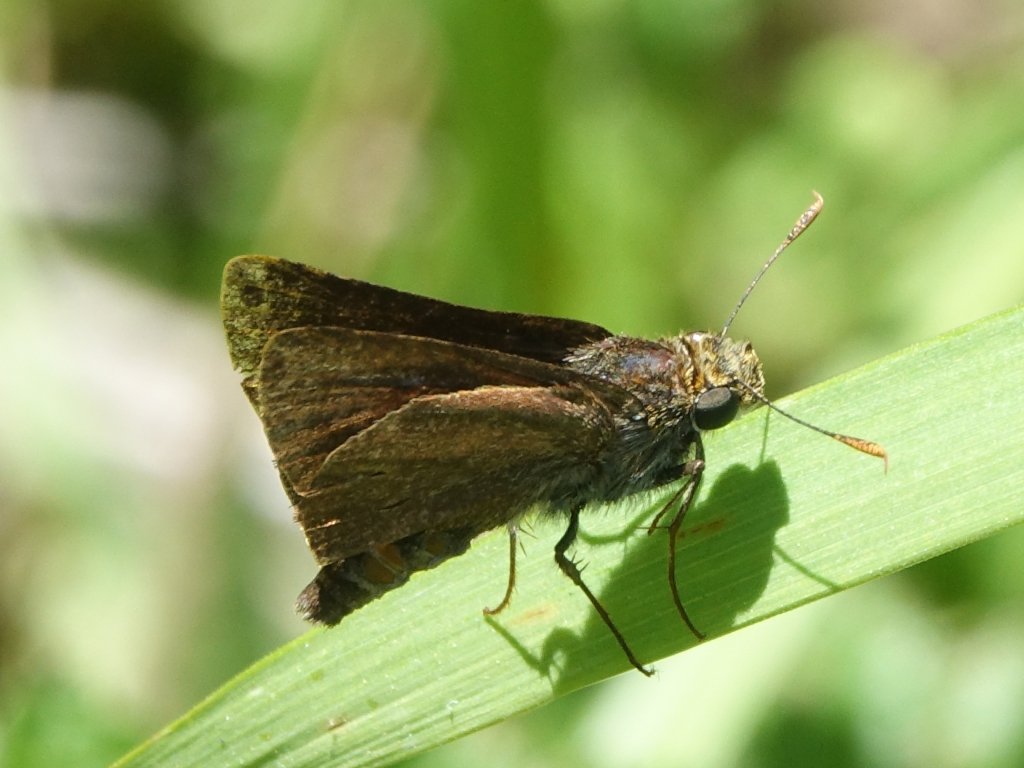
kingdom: Animalia
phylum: Arthropoda
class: Insecta
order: Lepidoptera
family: Hesperiidae
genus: Euphyes
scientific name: Euphyes vestris
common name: Dun Skipper
